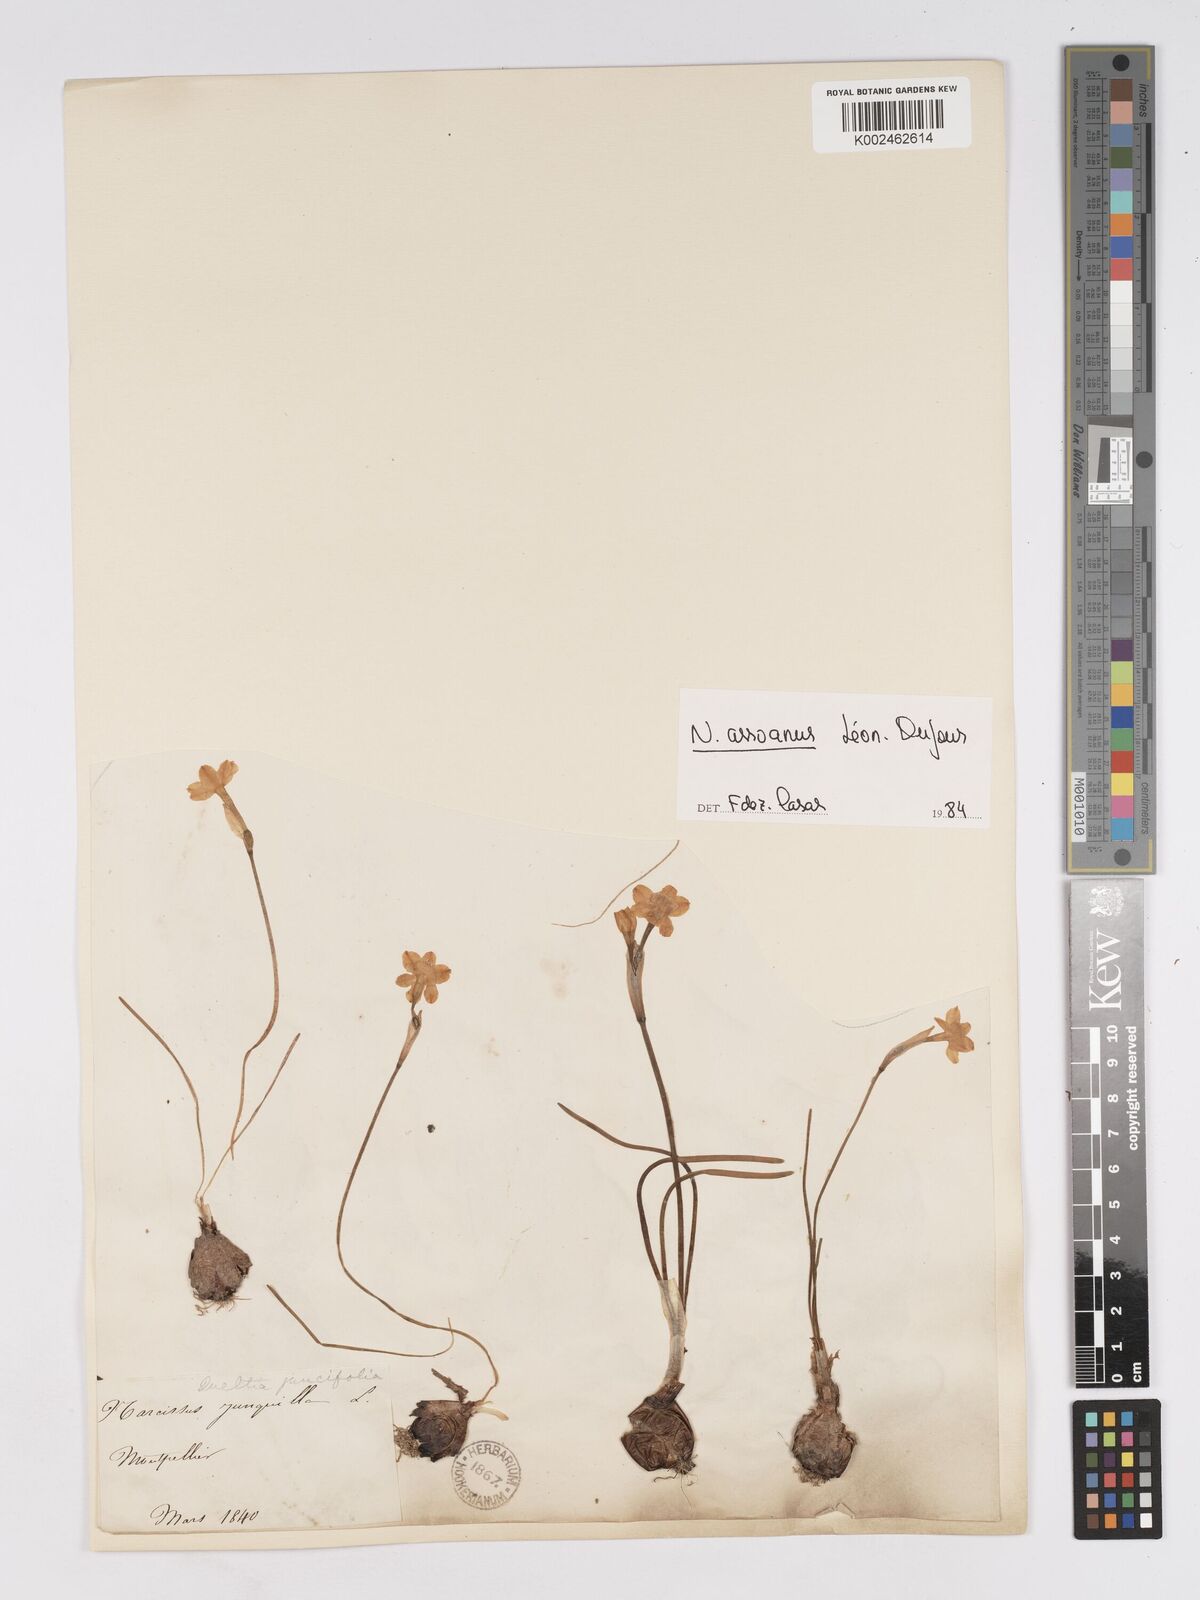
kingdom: Plantae
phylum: Tracheophyta
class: Liliopsida
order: Asparagales
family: Amaryllidaceae
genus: Narcissus
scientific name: Narcissus assoanus
